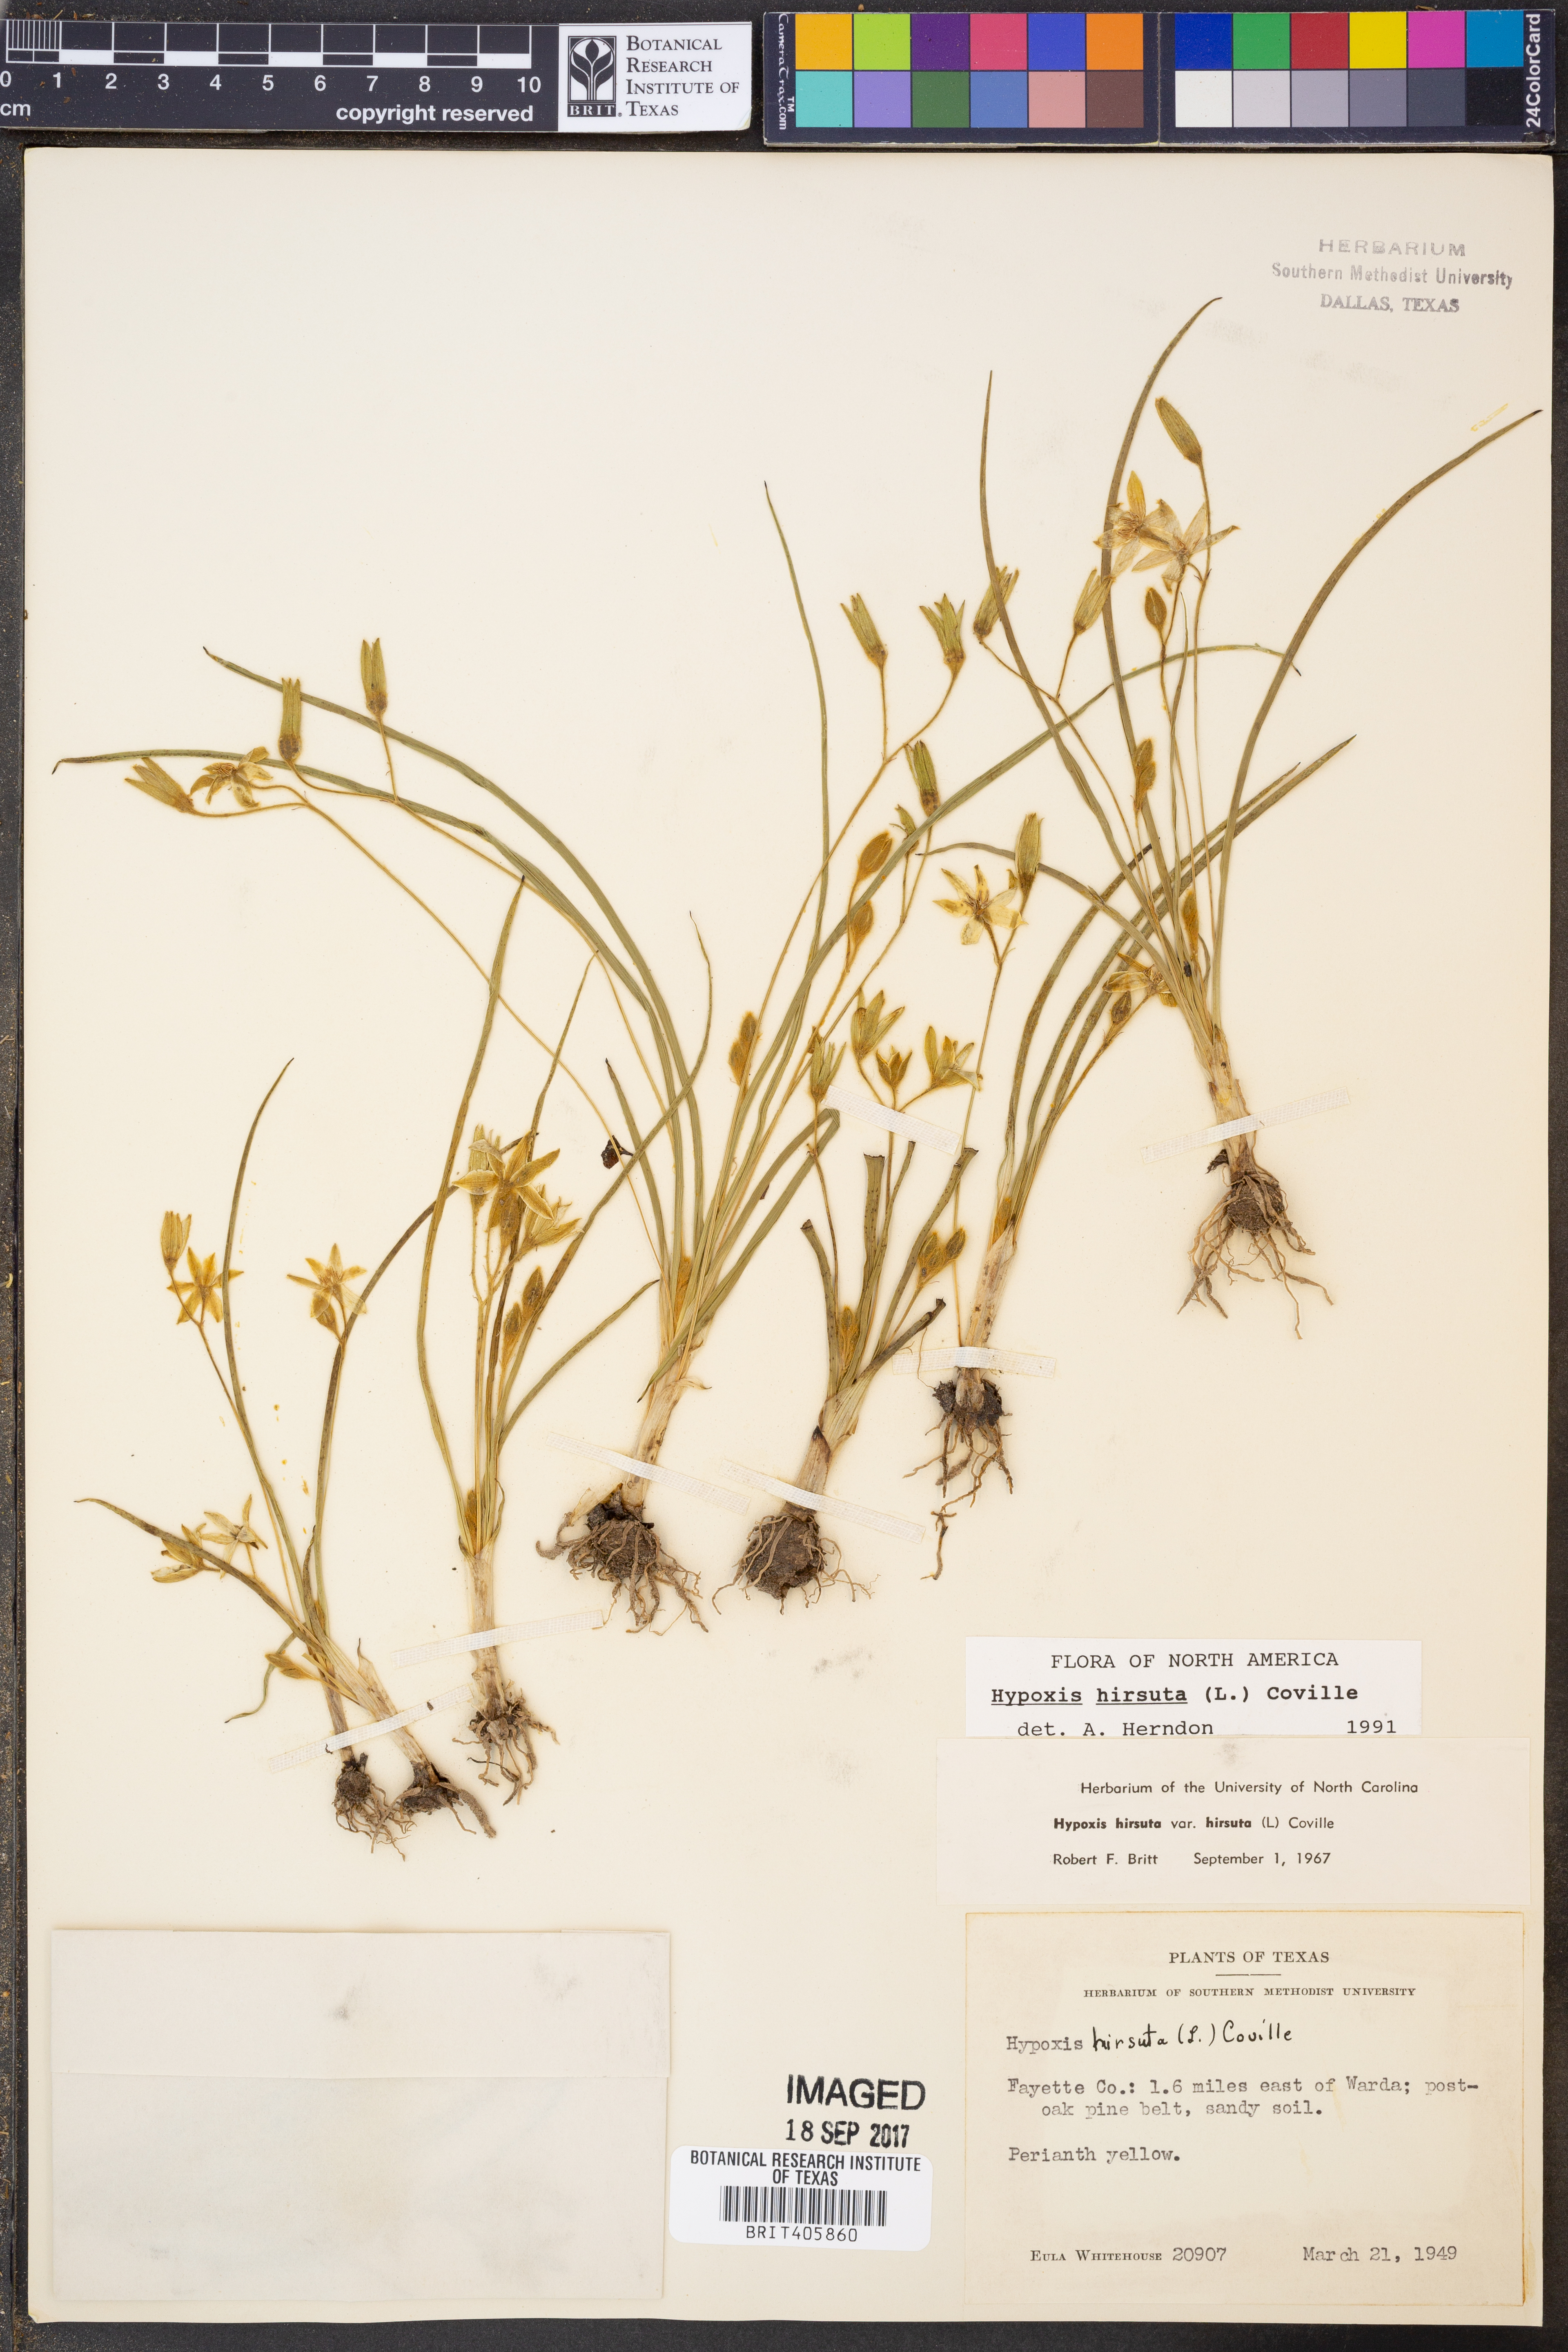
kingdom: Plantae
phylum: Tracheophyta
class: Liliopsida
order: Asparagales
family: Hypoxidaceae
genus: Hypoxis
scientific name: Hypoxis hirsuta
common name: Common goldstar
